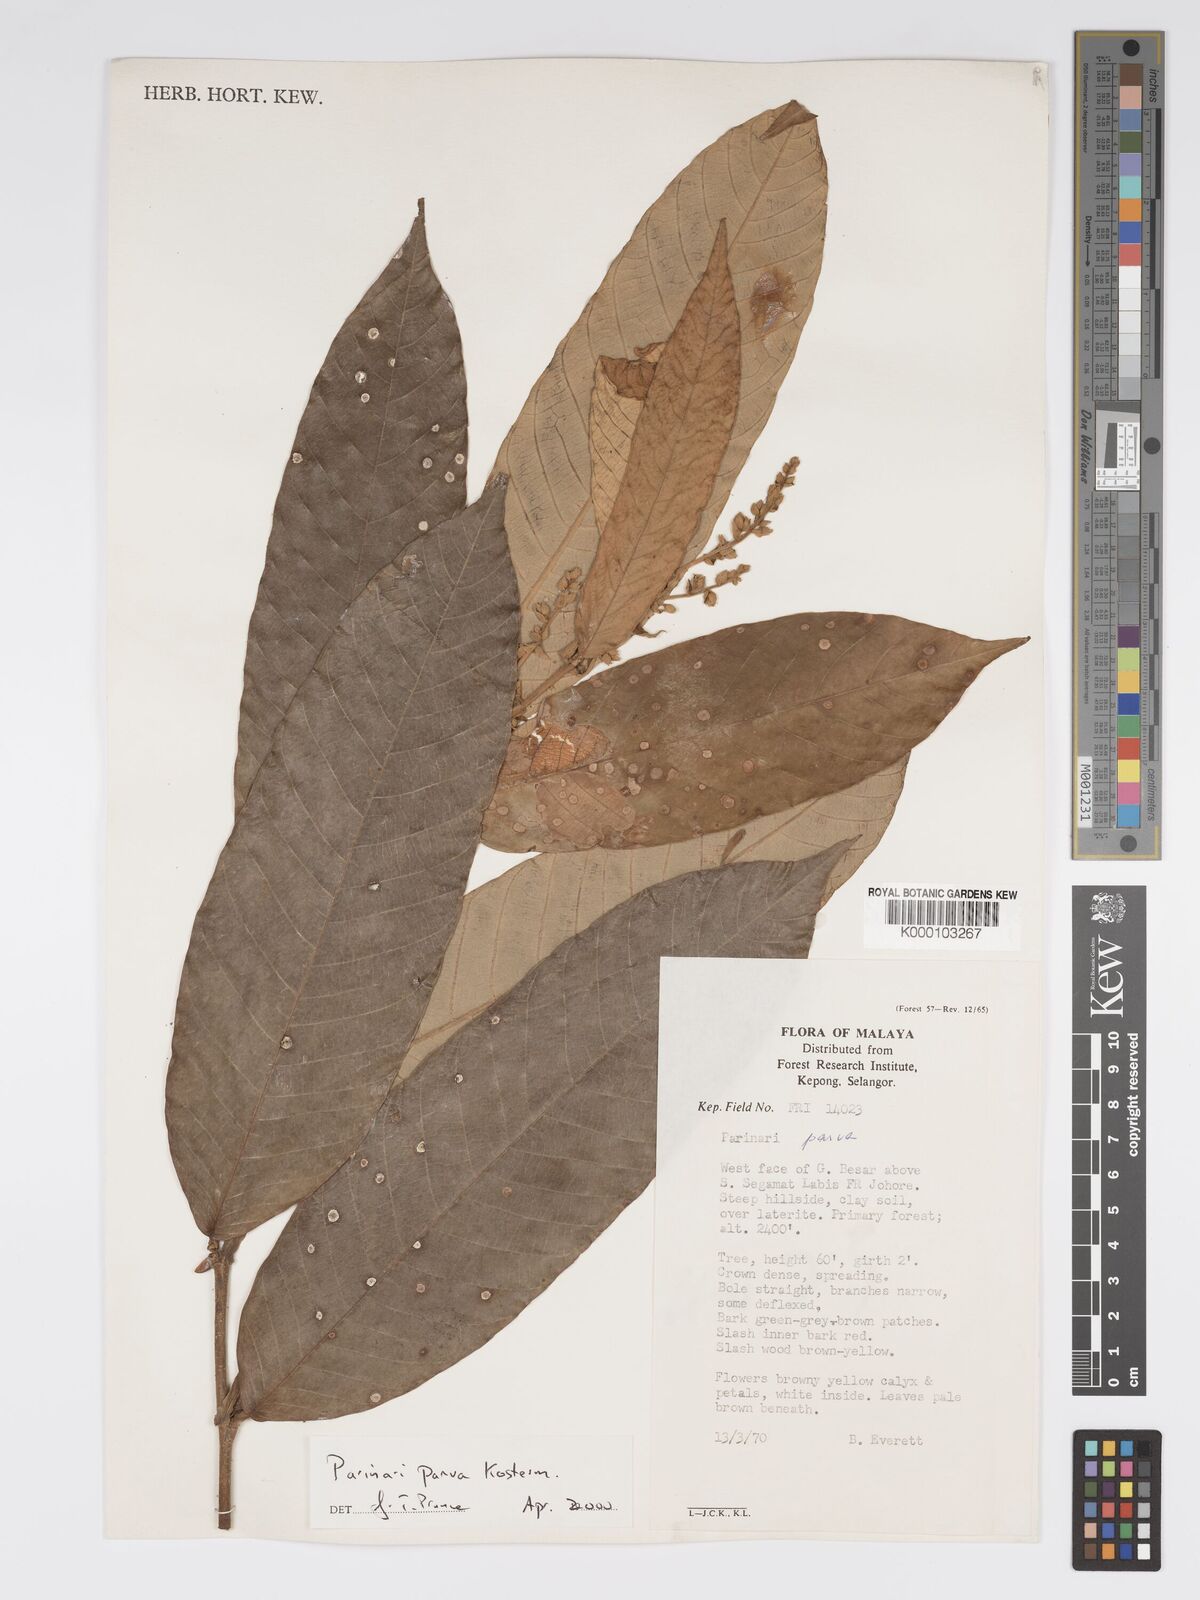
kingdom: Plantae
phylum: Tracheophyta
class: Magnoliopsida
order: Malpighiales
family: Chrysobalanaceae
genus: Parinari
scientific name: Parinari parva
